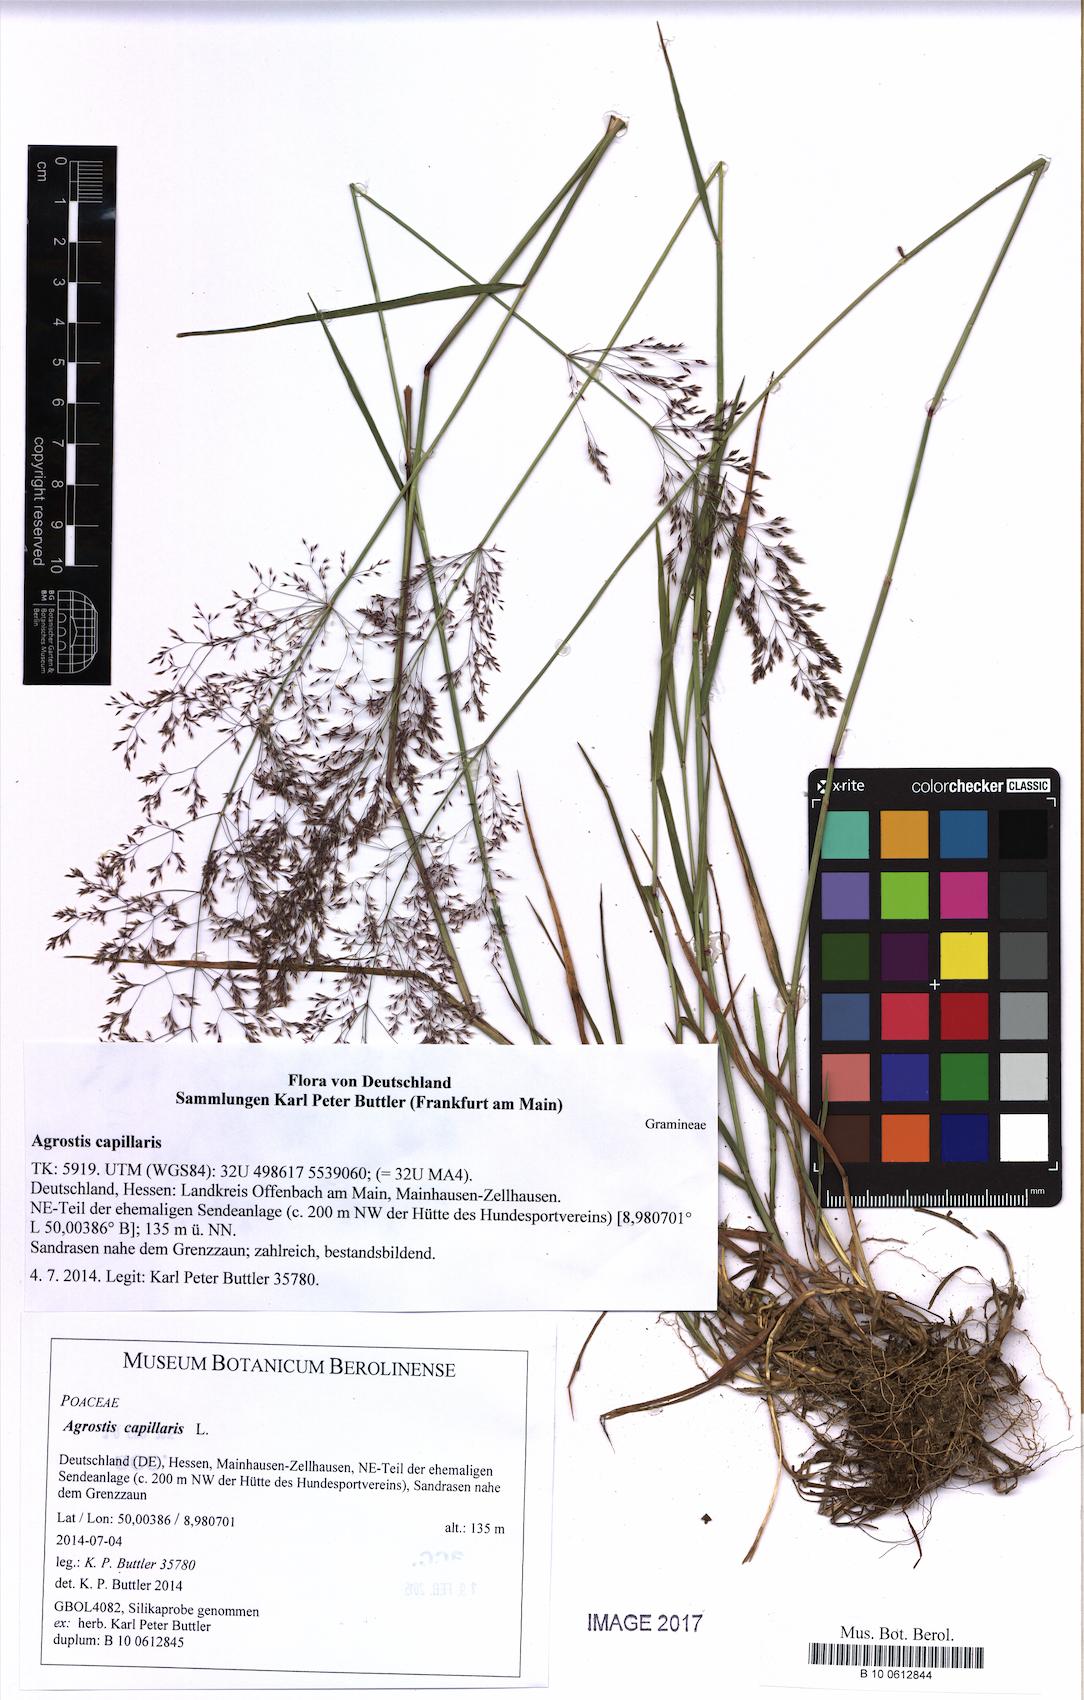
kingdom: Plantae
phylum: Tracheophyta
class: Liliopsida
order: Poales
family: Poaceae
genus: Agrostis
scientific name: Agrostis capillaris
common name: Colonial bentgrass
